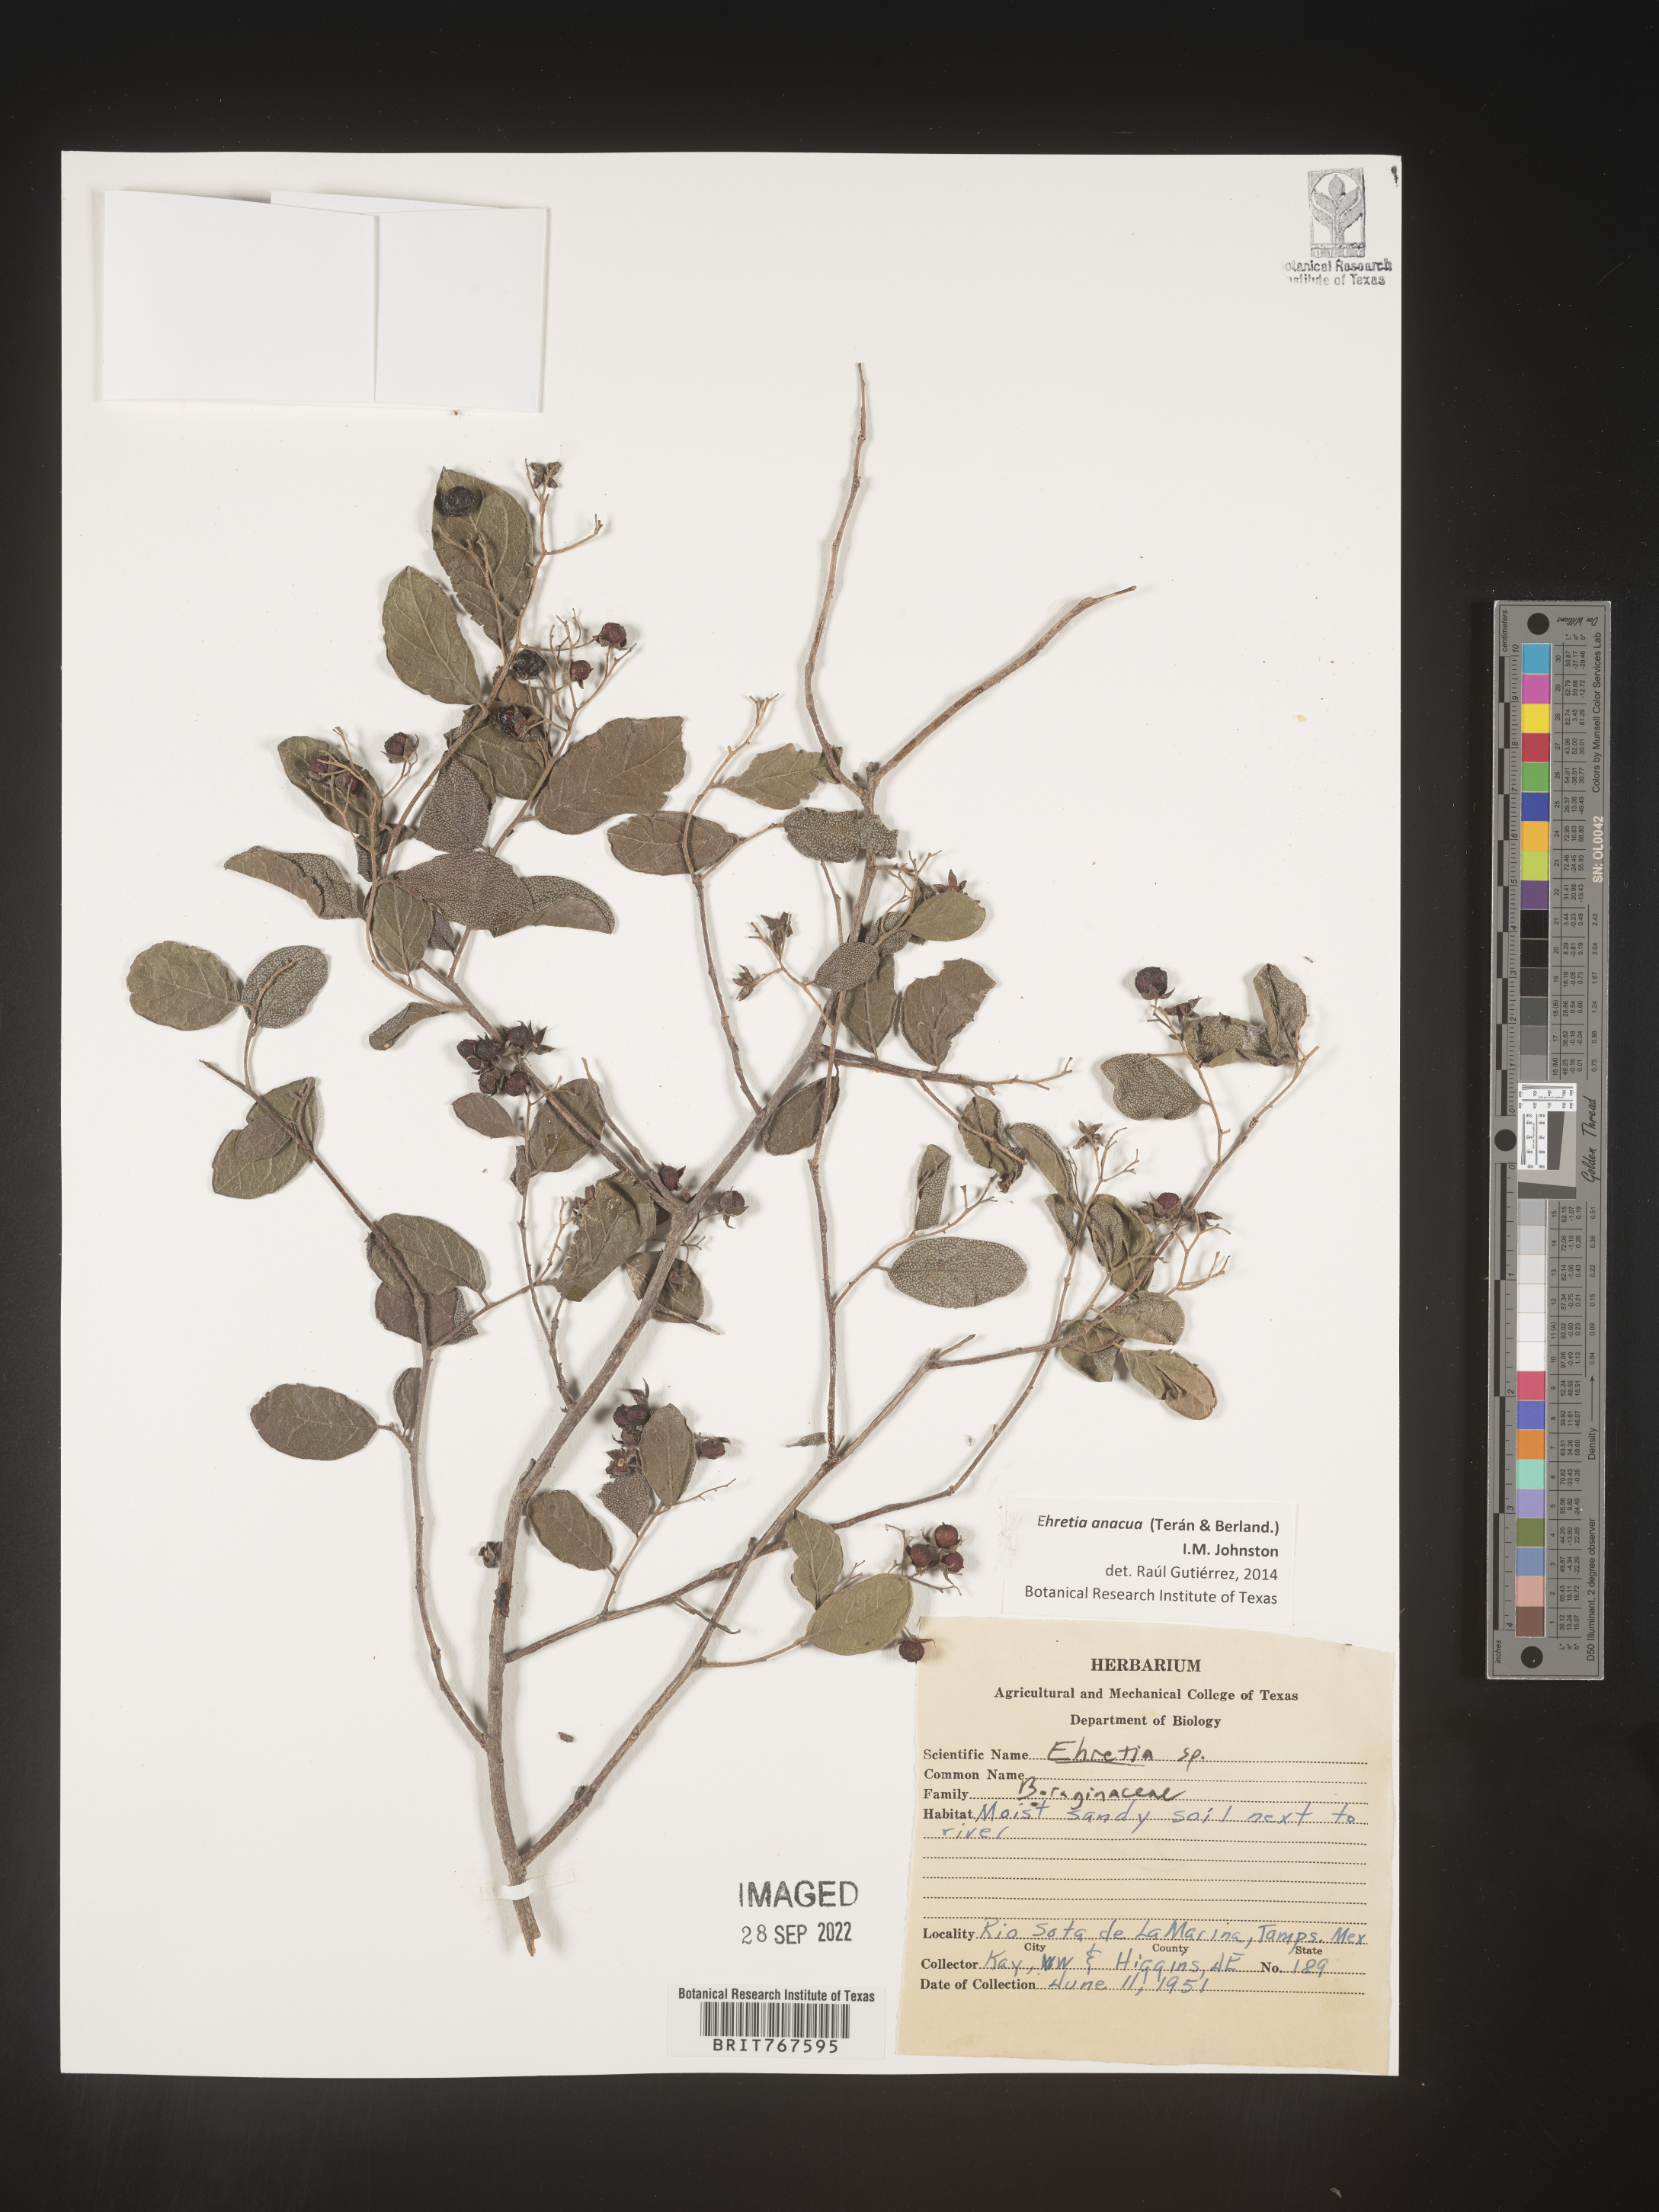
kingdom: Plantae
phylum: Tracheophyta
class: Magnoliopsida
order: Boraginales
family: Ehretiaceae
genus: Ehretia
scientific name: Ehretia
